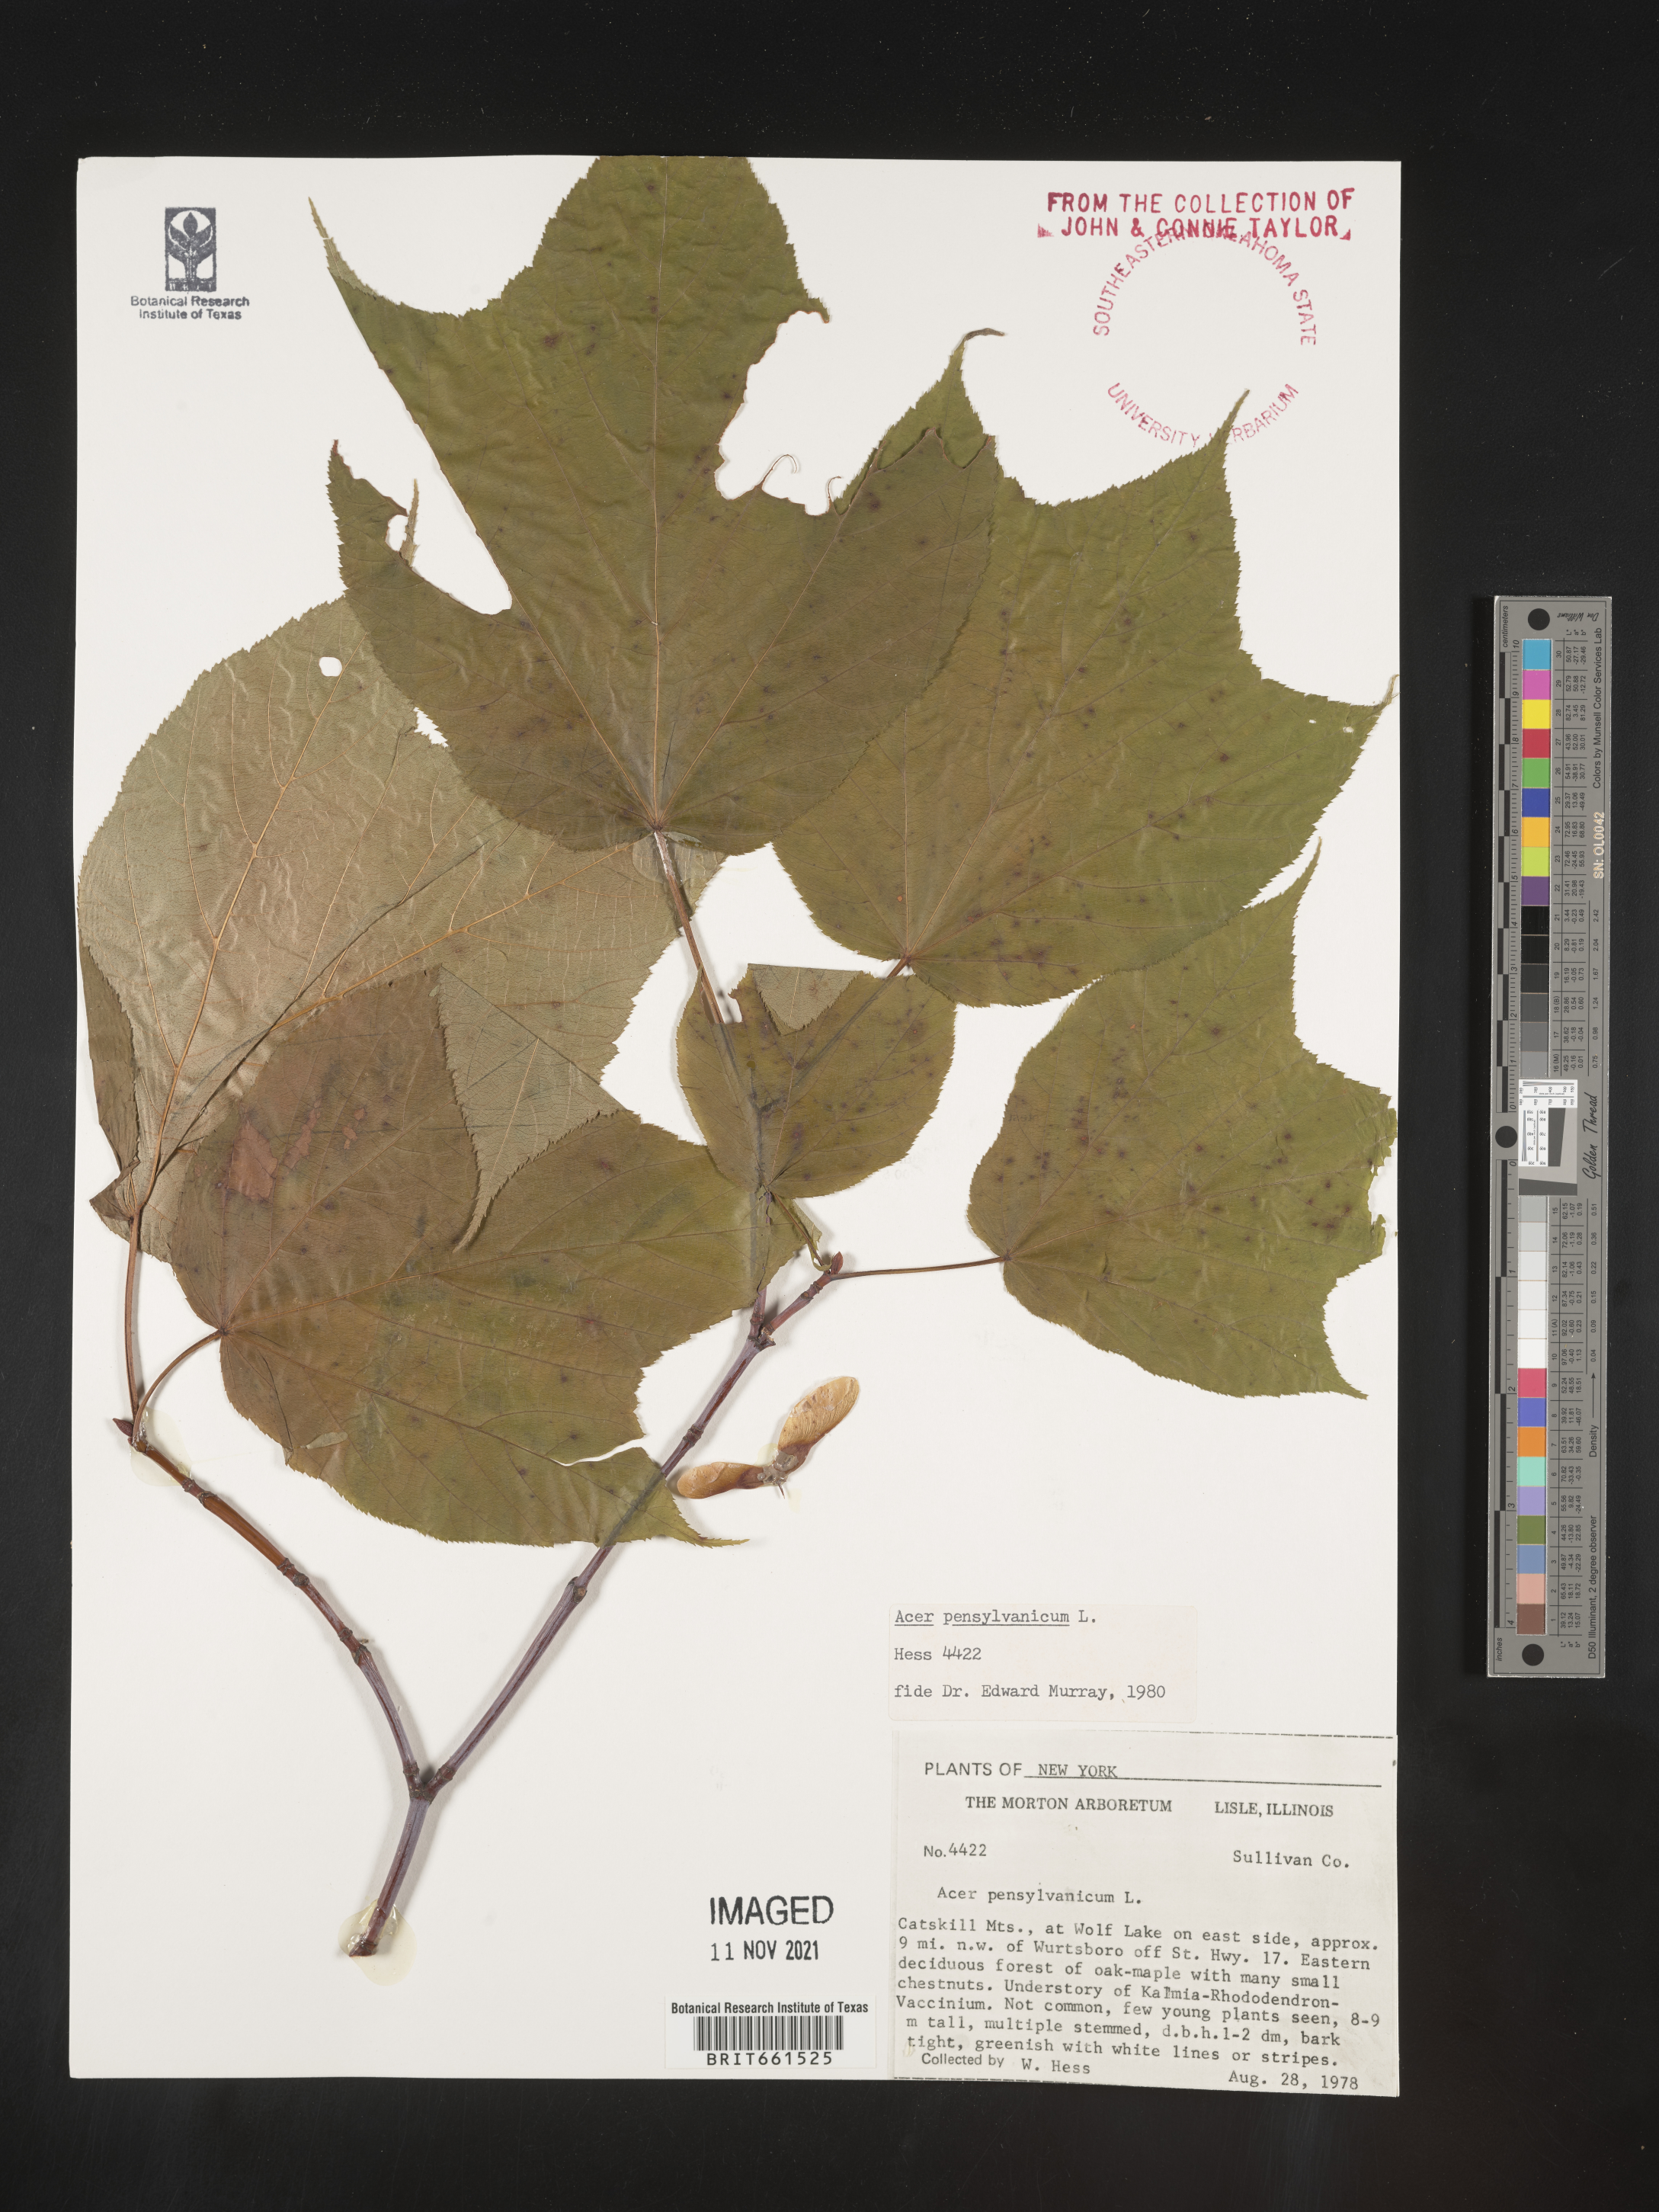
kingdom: Plantae
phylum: Tracheophyta
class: Magnoliopsida
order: Sapindales
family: Sapindaceae
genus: Acer
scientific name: Acer pensylvanicum
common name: Moosewood
